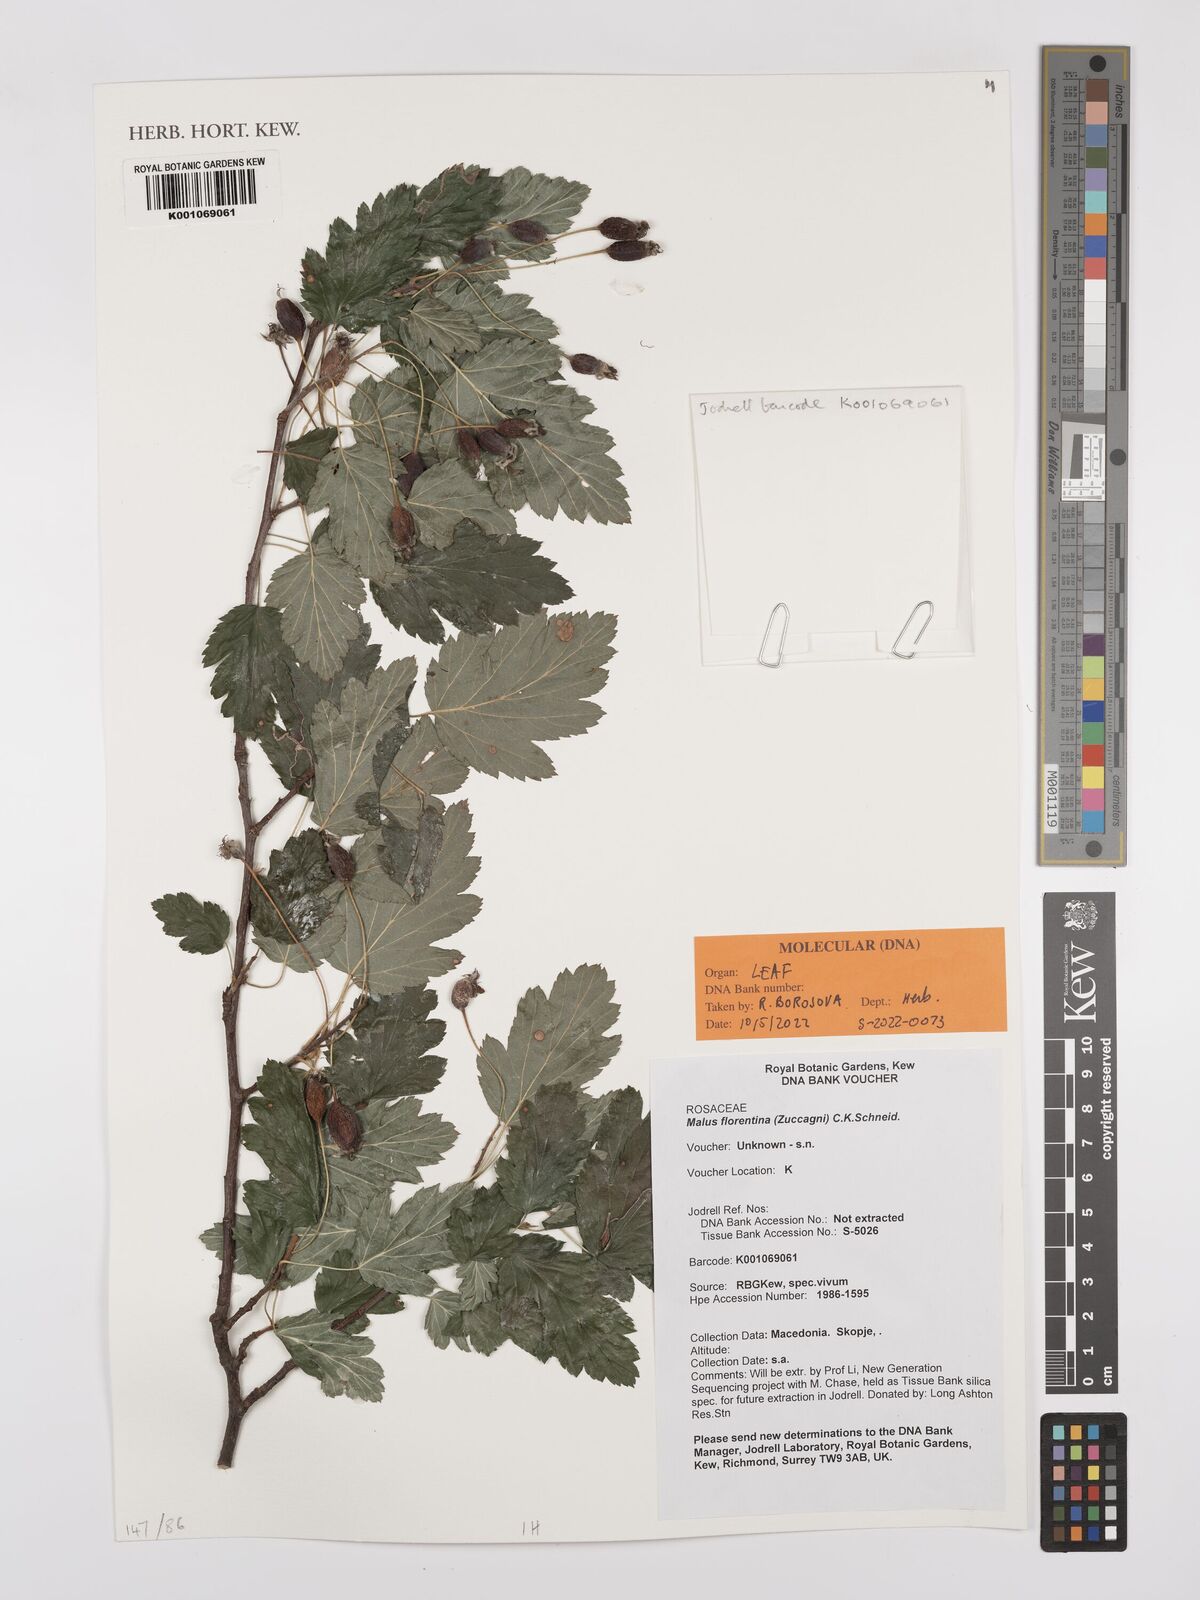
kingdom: Plantae
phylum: Tracheophyta
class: Magnoliopsida
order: Rosales
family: Rosaceae
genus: Tormimalus
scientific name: Tormimalus florentina
